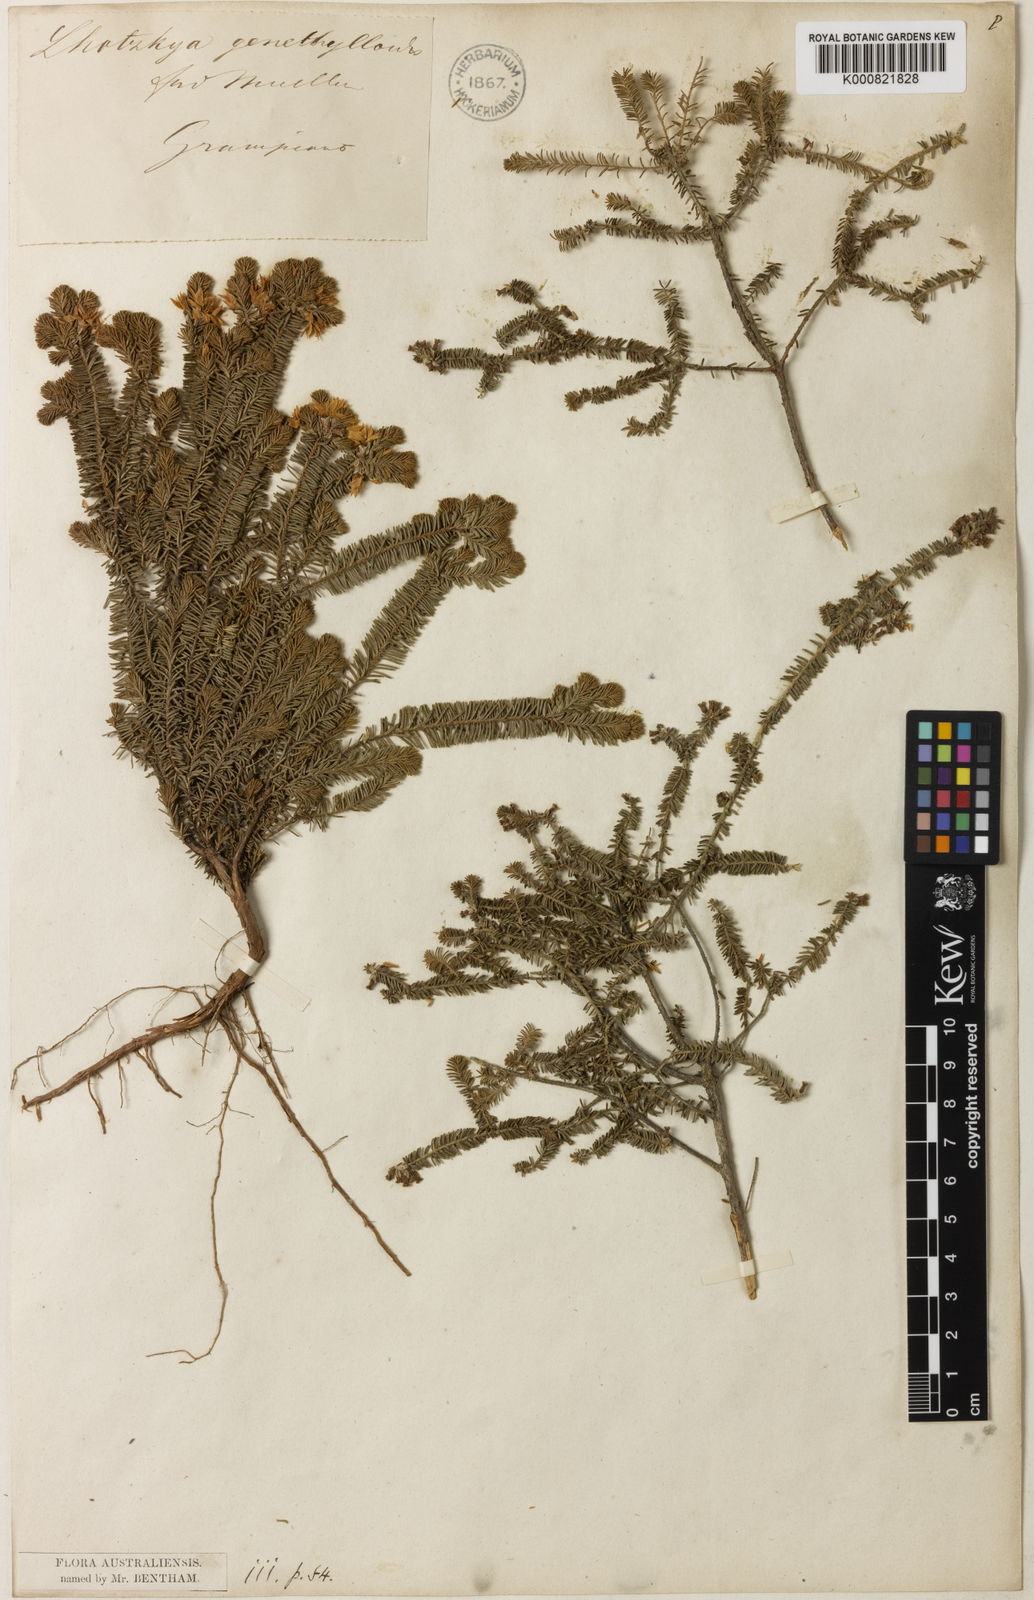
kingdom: Plantae
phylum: Tracheophyta
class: Magnoliopsida
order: Myrtales
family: Myrtaceae
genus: Calytrix
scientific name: Calytrix alpestris
